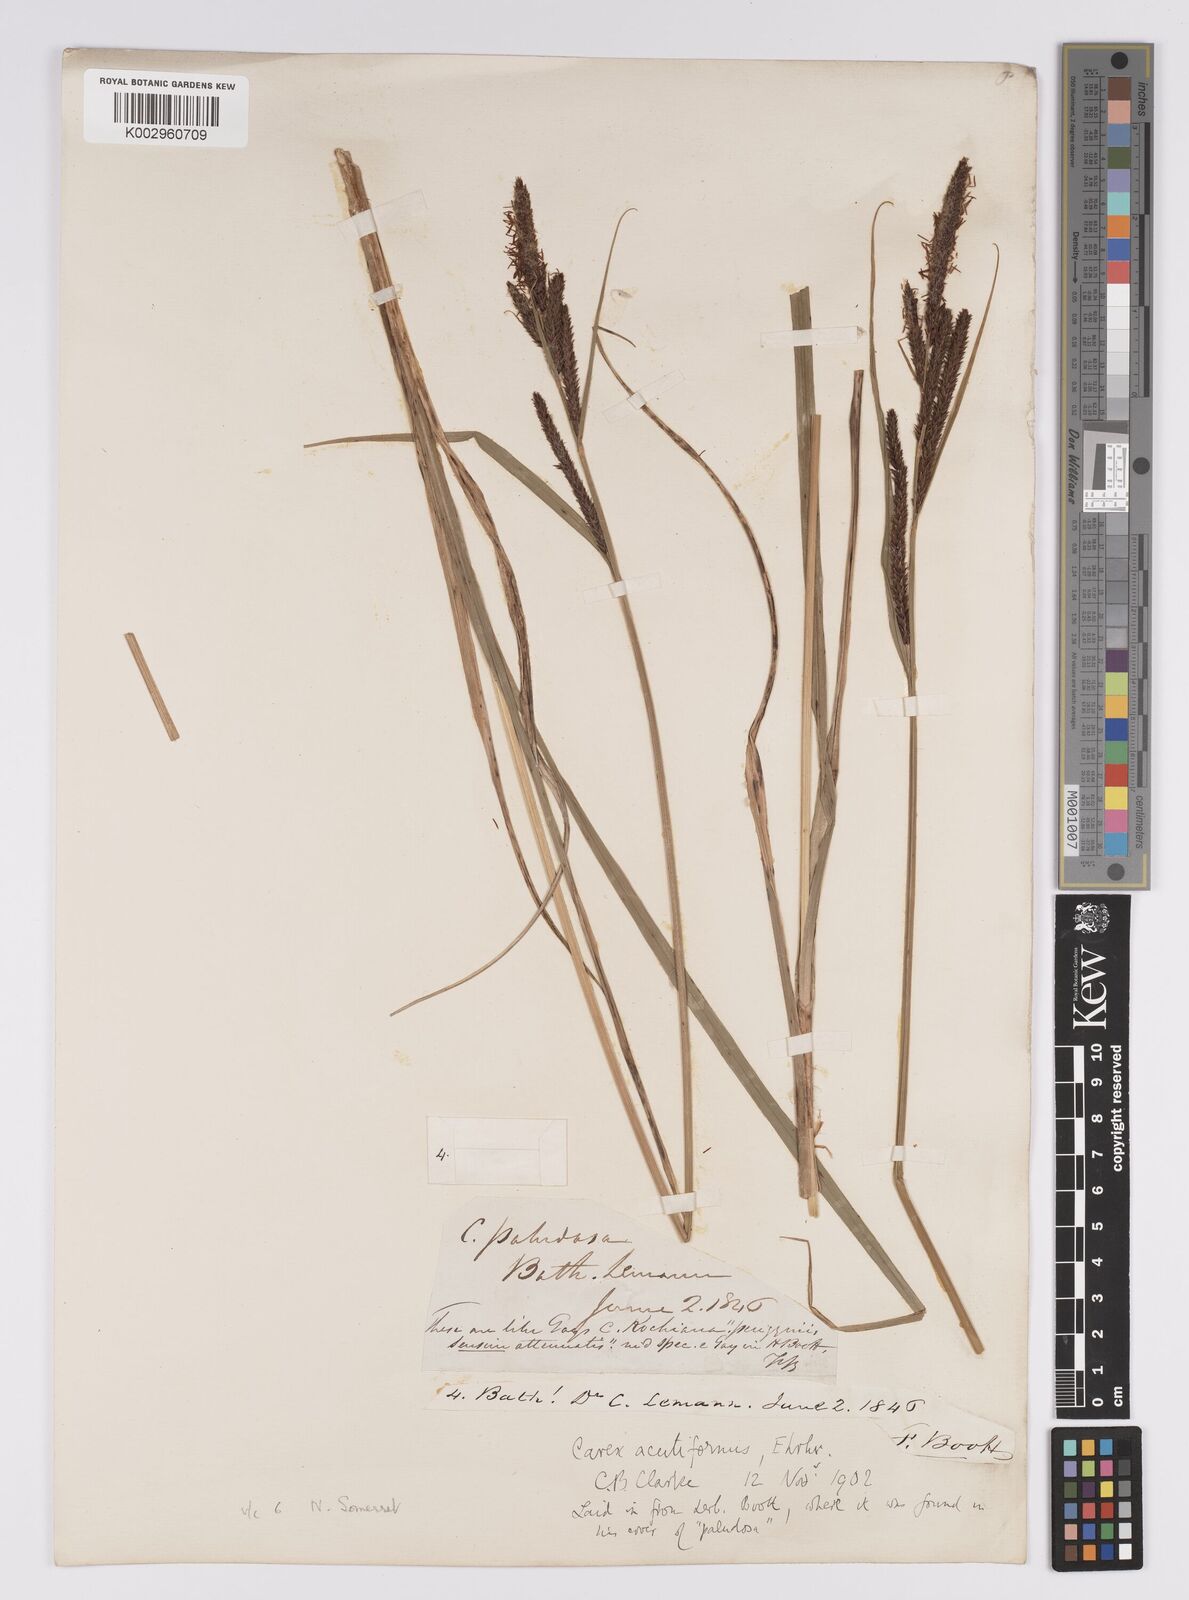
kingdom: Plantae
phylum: Tracheophyta
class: Liliopsida
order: Poales
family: Cyperaceae
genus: Carex
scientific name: Carex acutiformis
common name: Lesser pond-sedge
